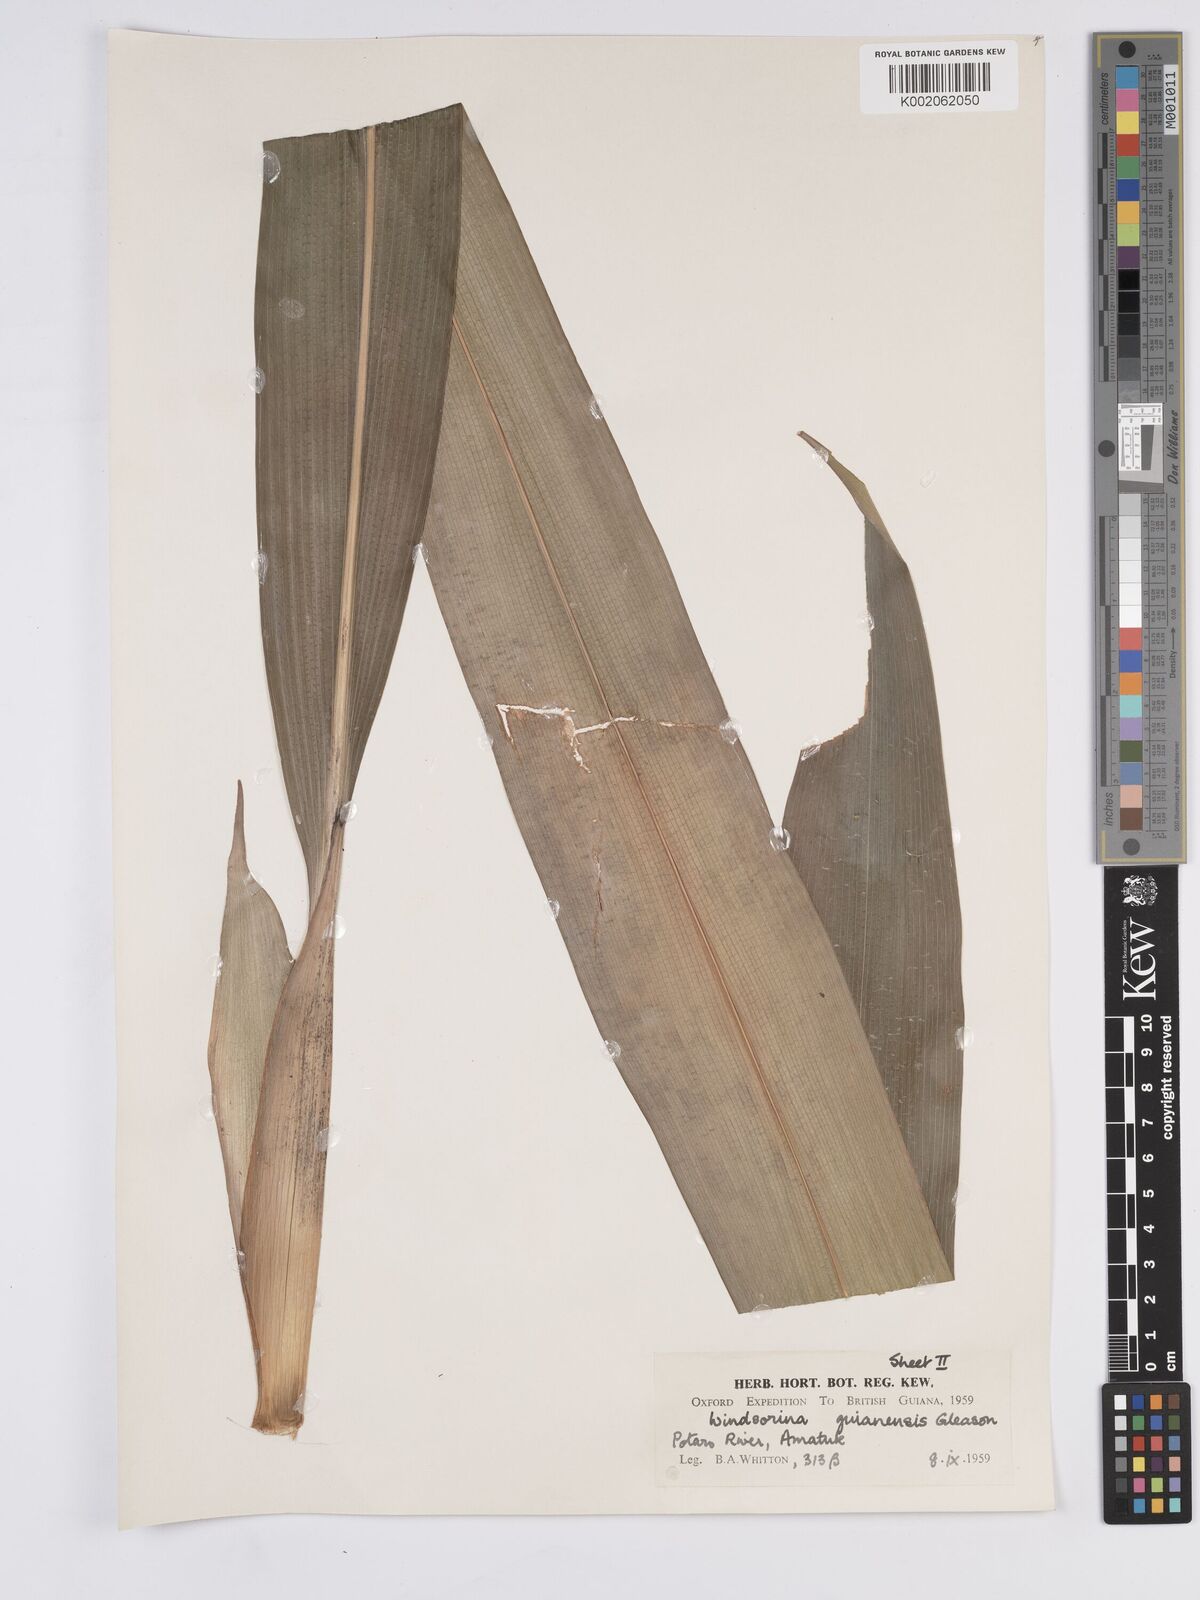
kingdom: Plantae
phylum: Tracheophyta
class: Liliopsida
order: Poales
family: Rapateaceae
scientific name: Rapateaceae
